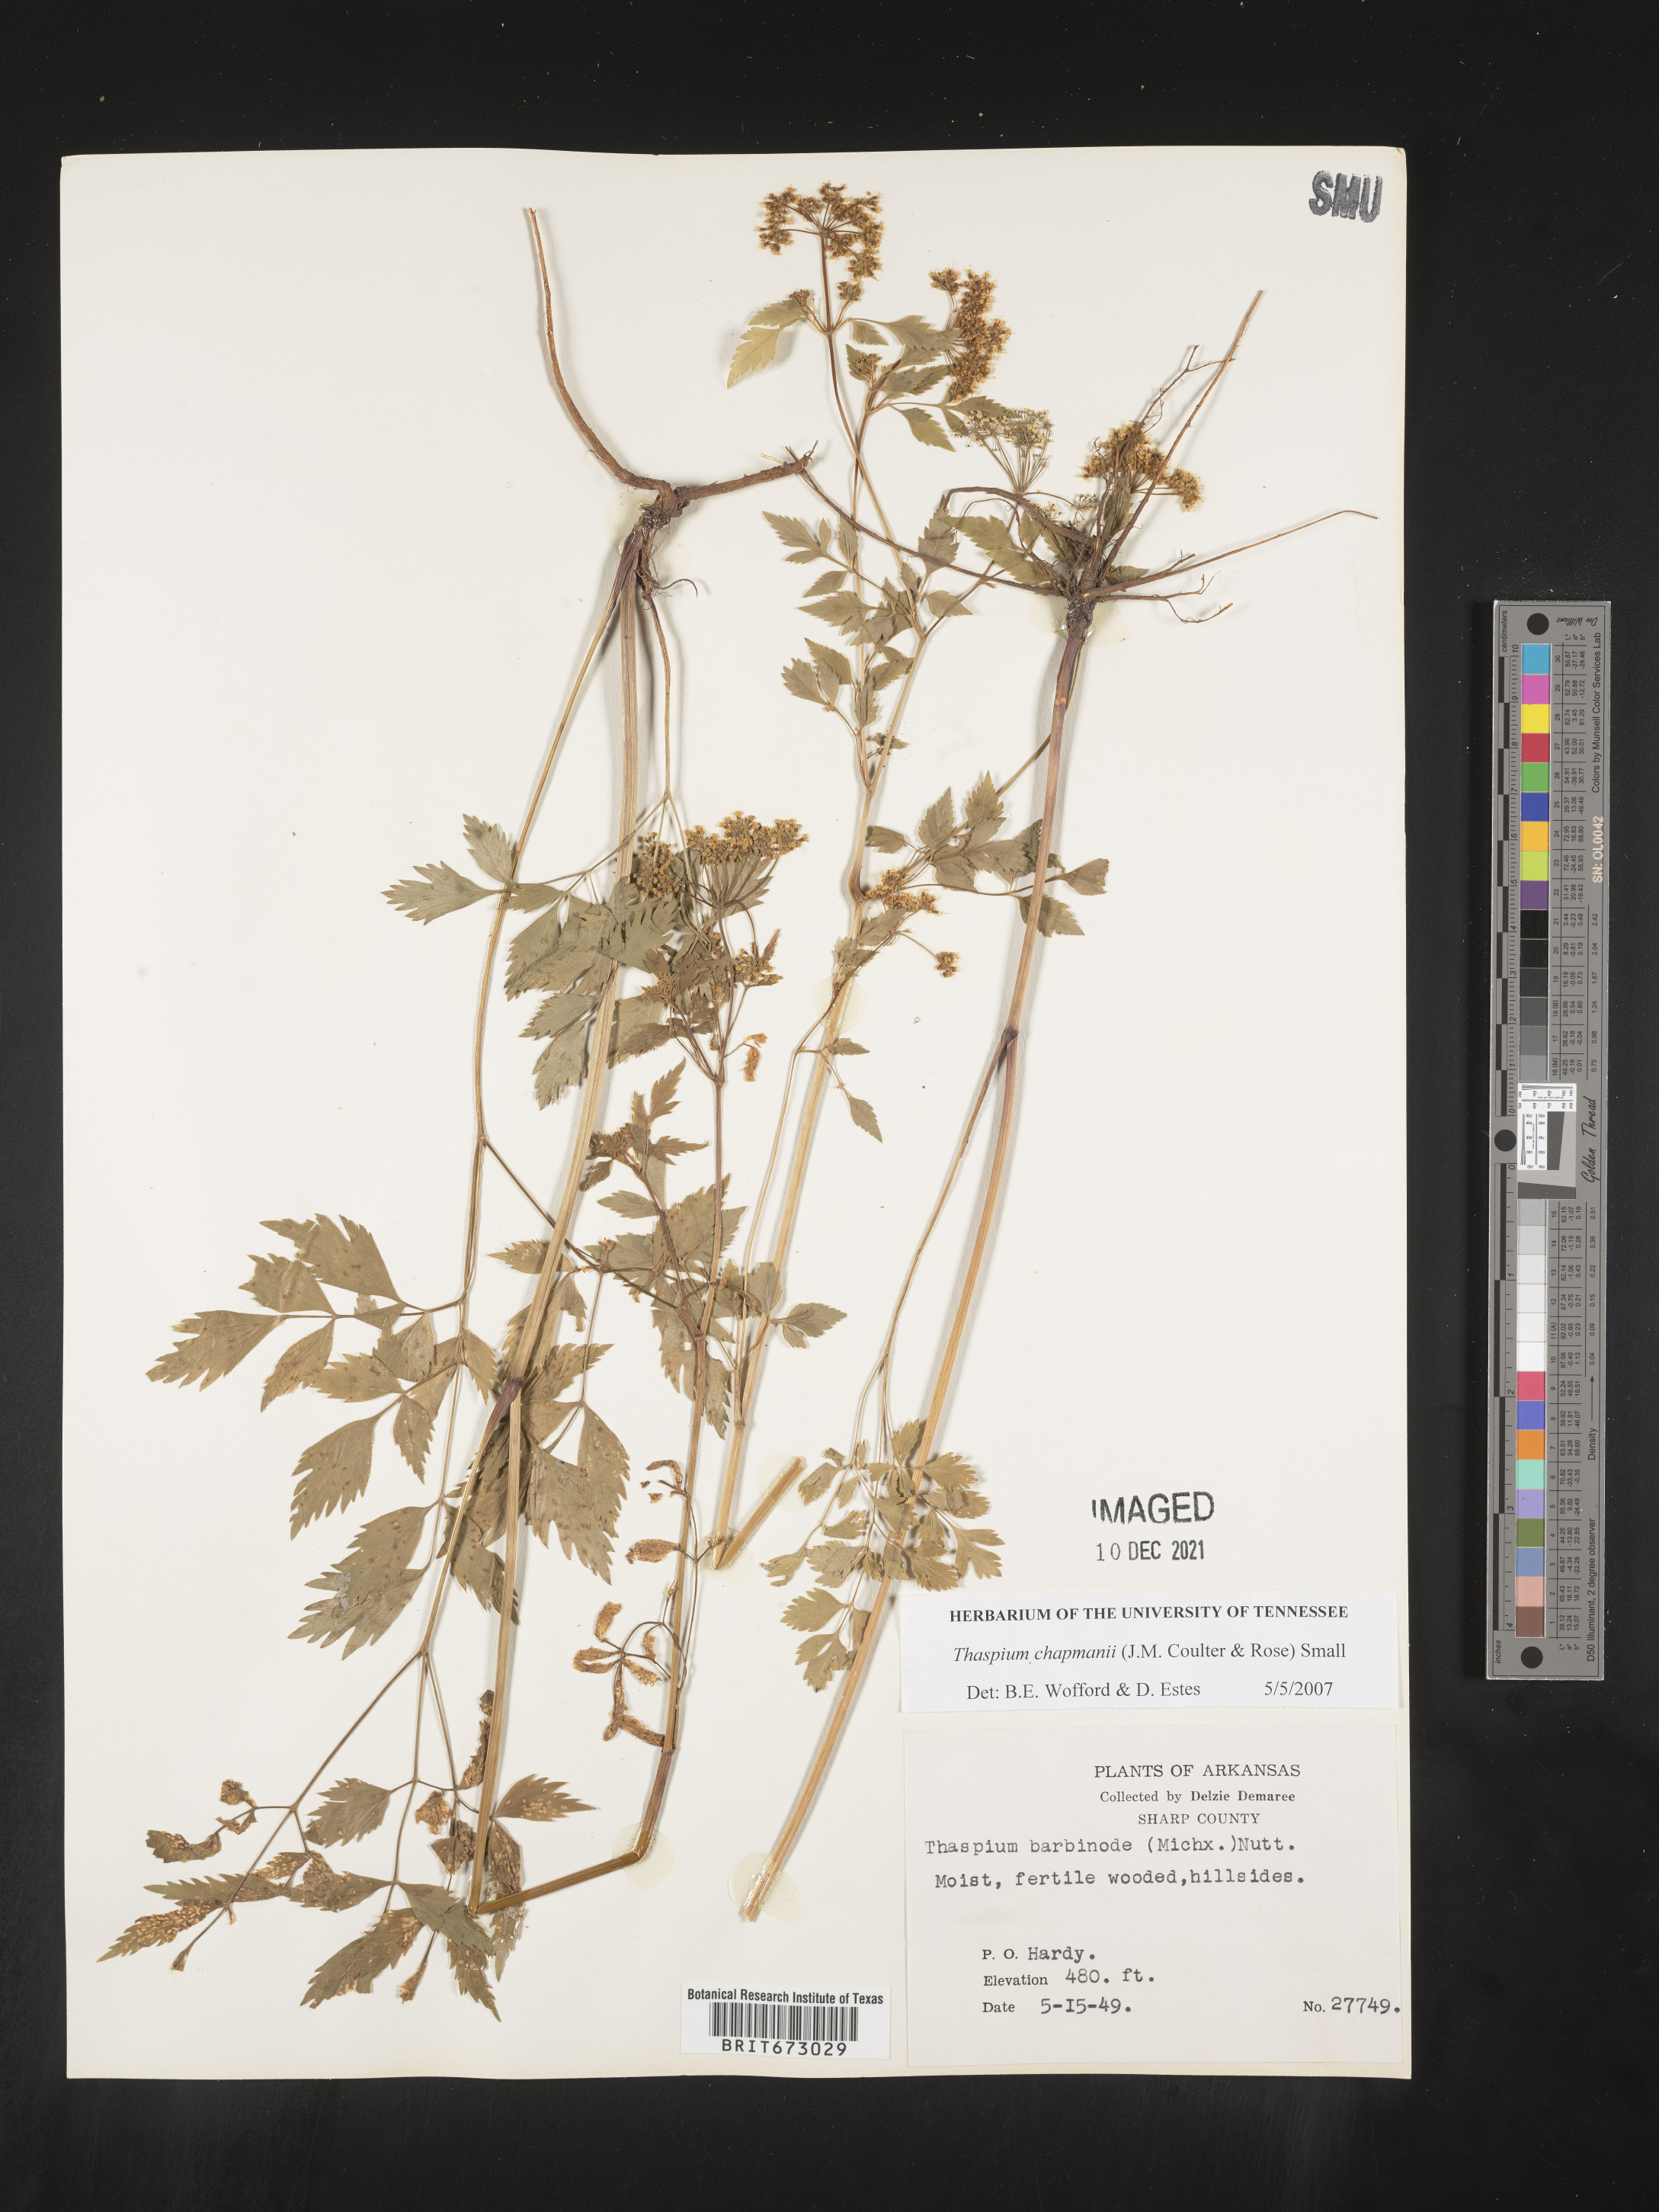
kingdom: Plantae
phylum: Tracheophyta
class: Magnoliopsida
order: Apiales
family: Apiaceae
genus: Thaspium
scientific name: Thaspium barbinode
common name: Bearded meadow-parsnip
